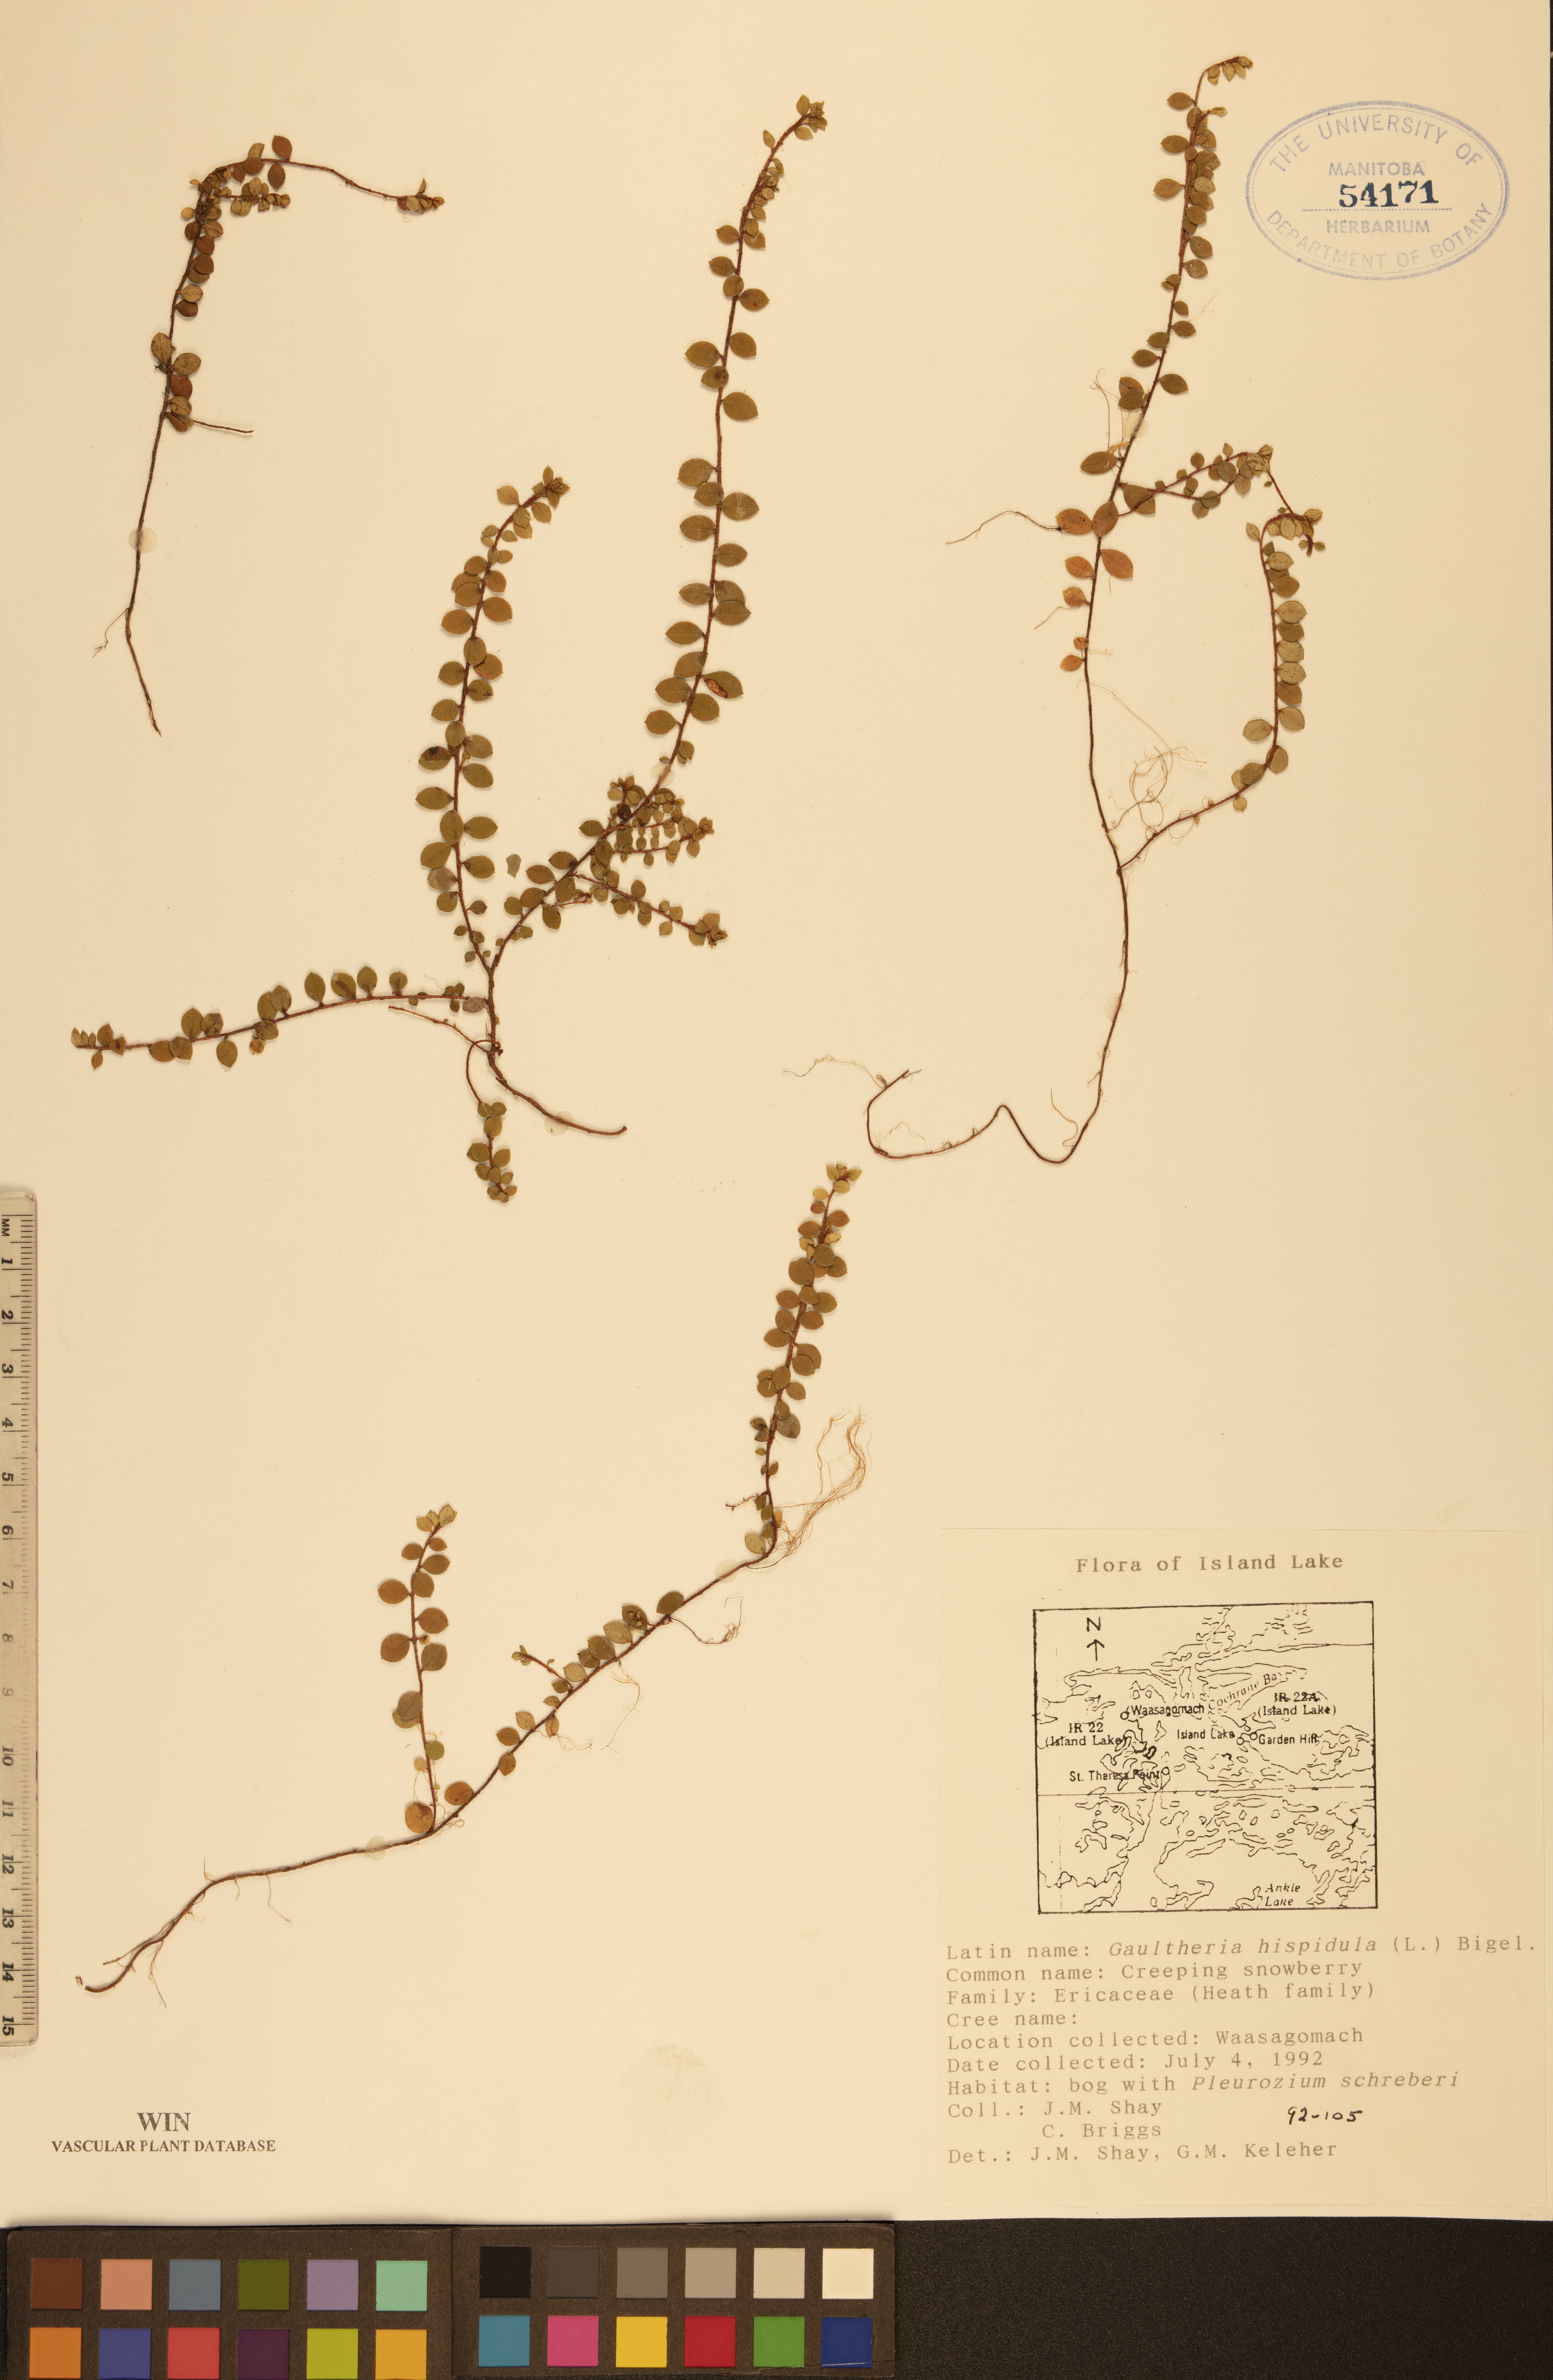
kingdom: Plantae
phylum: Tracheophyta
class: Magnoliopsida
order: Ericales
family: Ericaceae
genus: Gaultheria
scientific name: Gaultheria hispidula
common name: Cancer wintergreen
